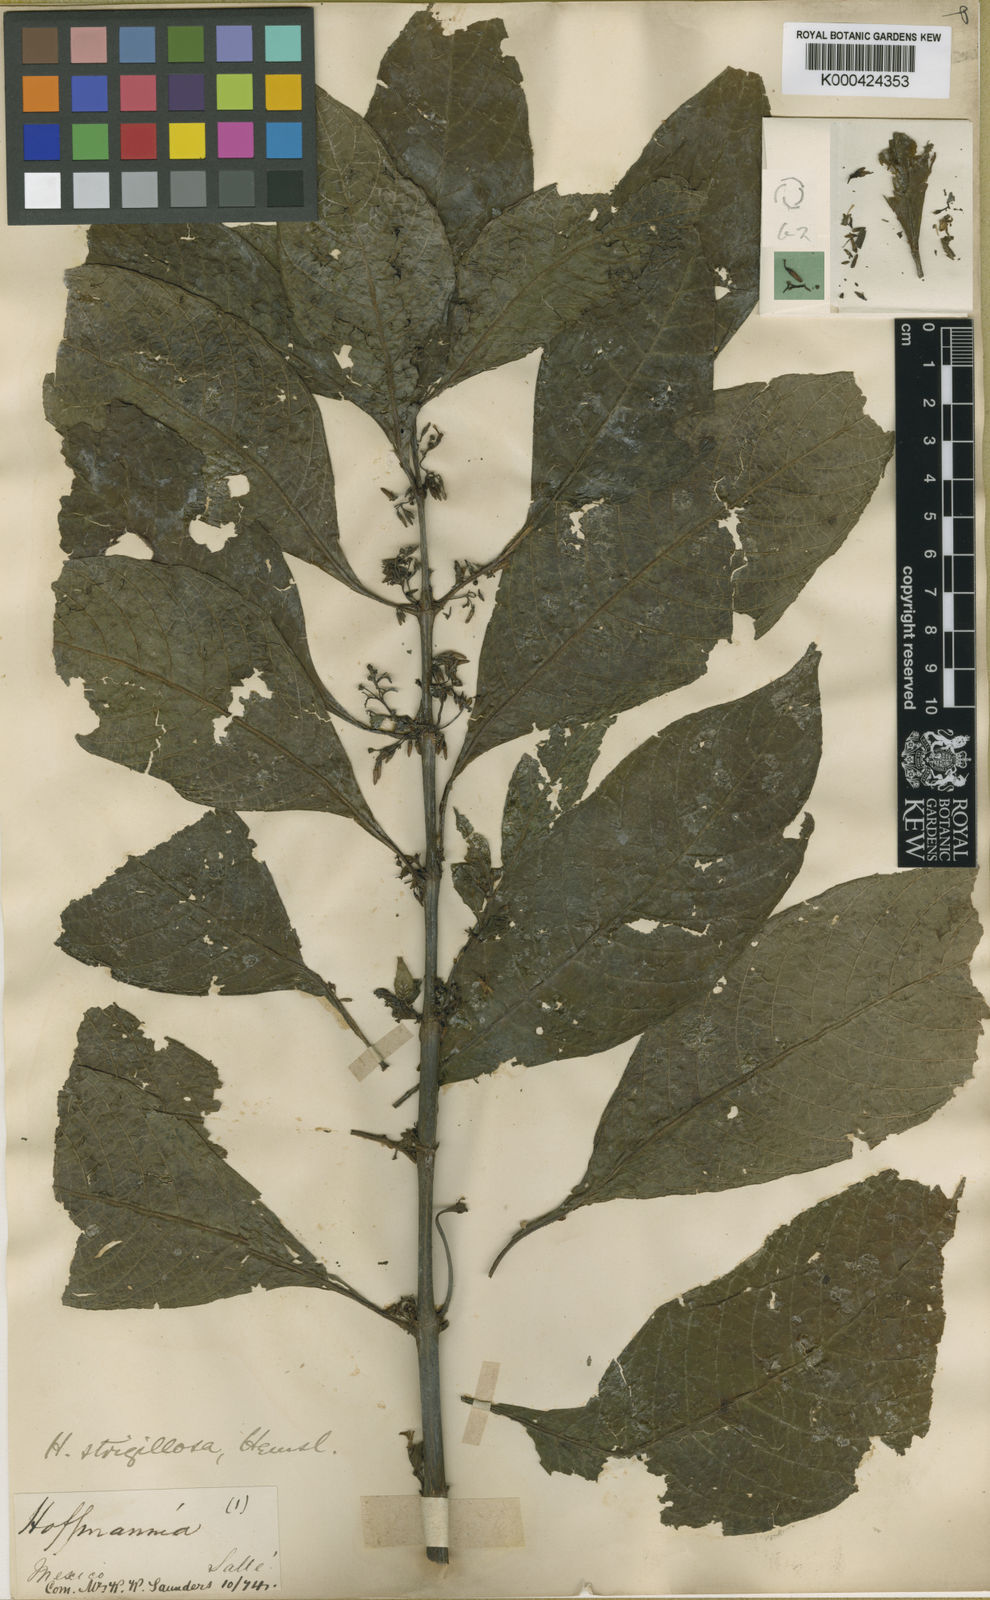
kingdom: Plantae
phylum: Tracheophyta
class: Magnoliopsida
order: Gentianales
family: Rubiaceae
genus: Hoffmannia
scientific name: Hoffmannia strigillosa
